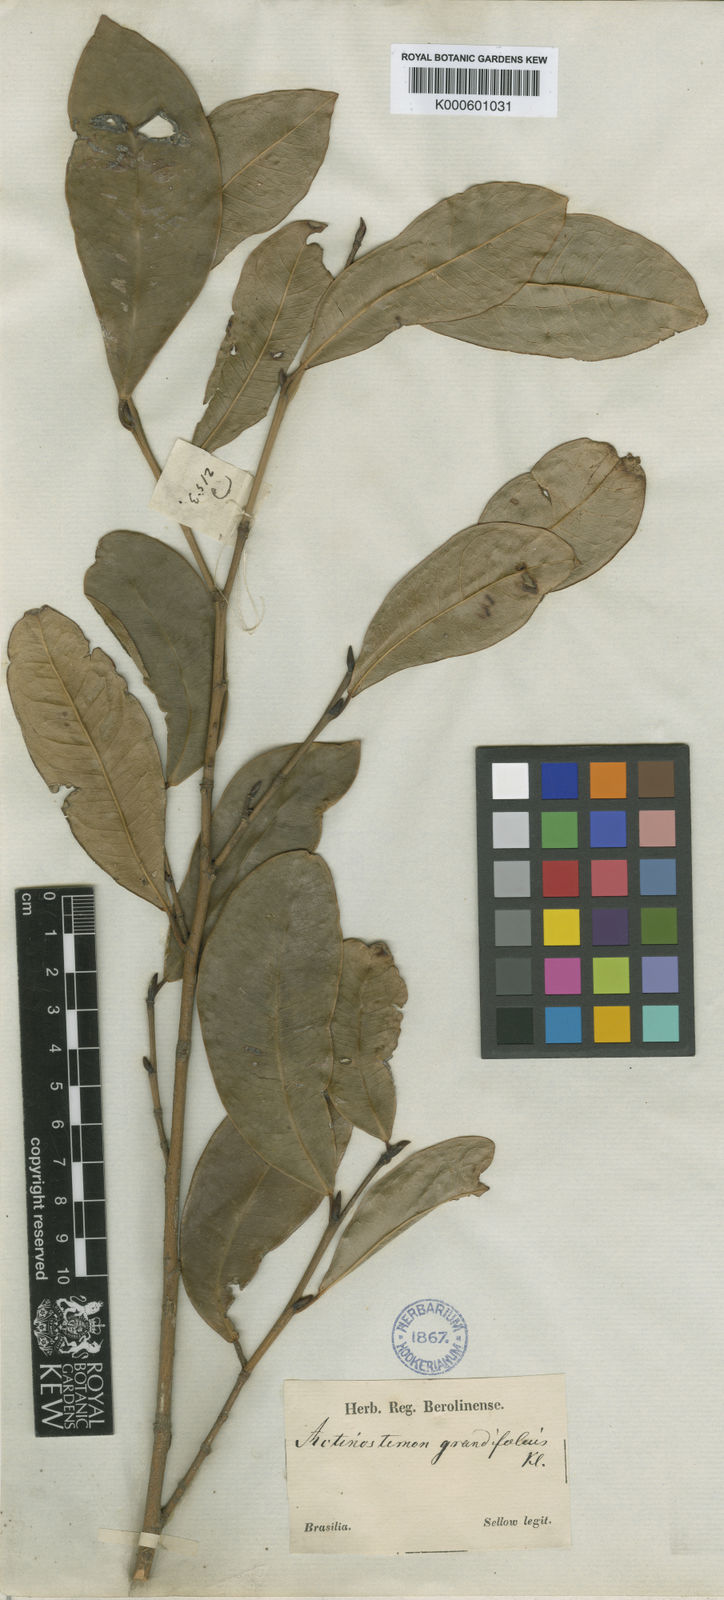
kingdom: Plantae
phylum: Tracheophyta
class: Magnoliopsida
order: Malpighiales
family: Euphorbiaceae
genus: Actinostemon
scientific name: Actinostemon
